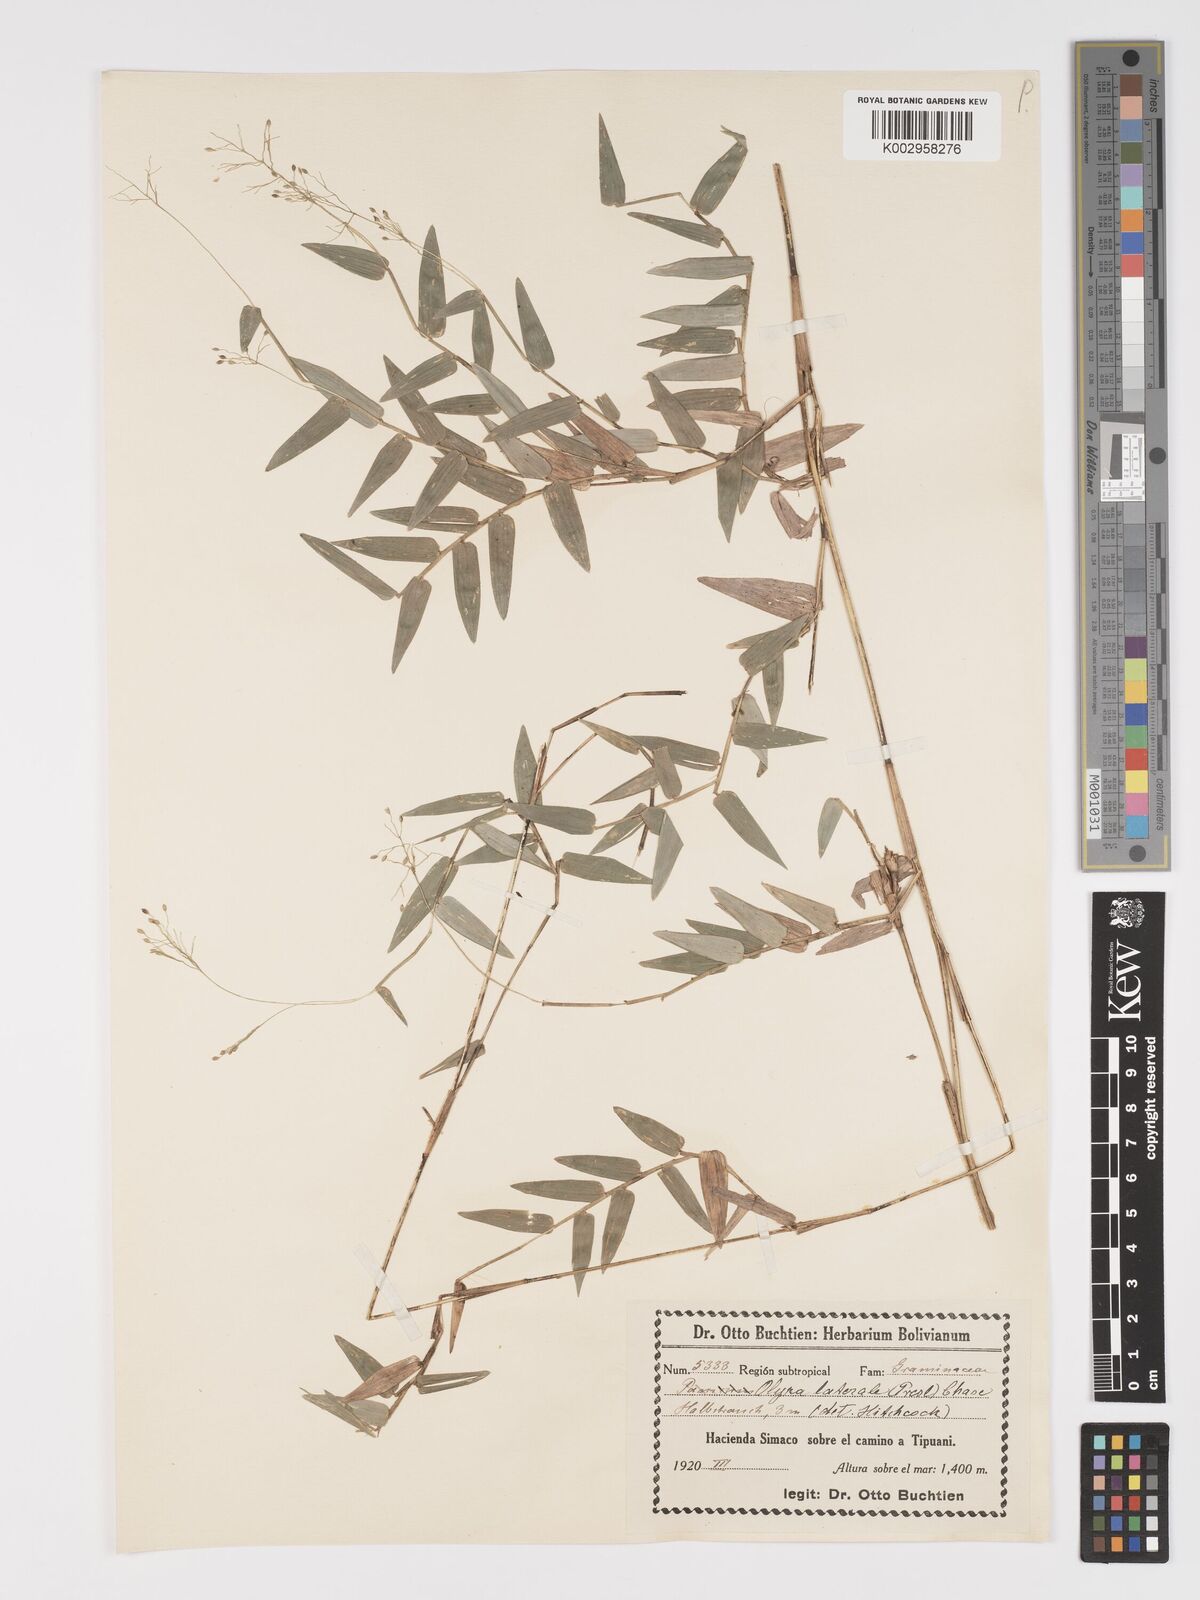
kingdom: Plantae
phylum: Tracheophyta
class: Liliopsida
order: Poales
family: Poaceae
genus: Parodiolyra
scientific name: Parodiolyra lateralis
